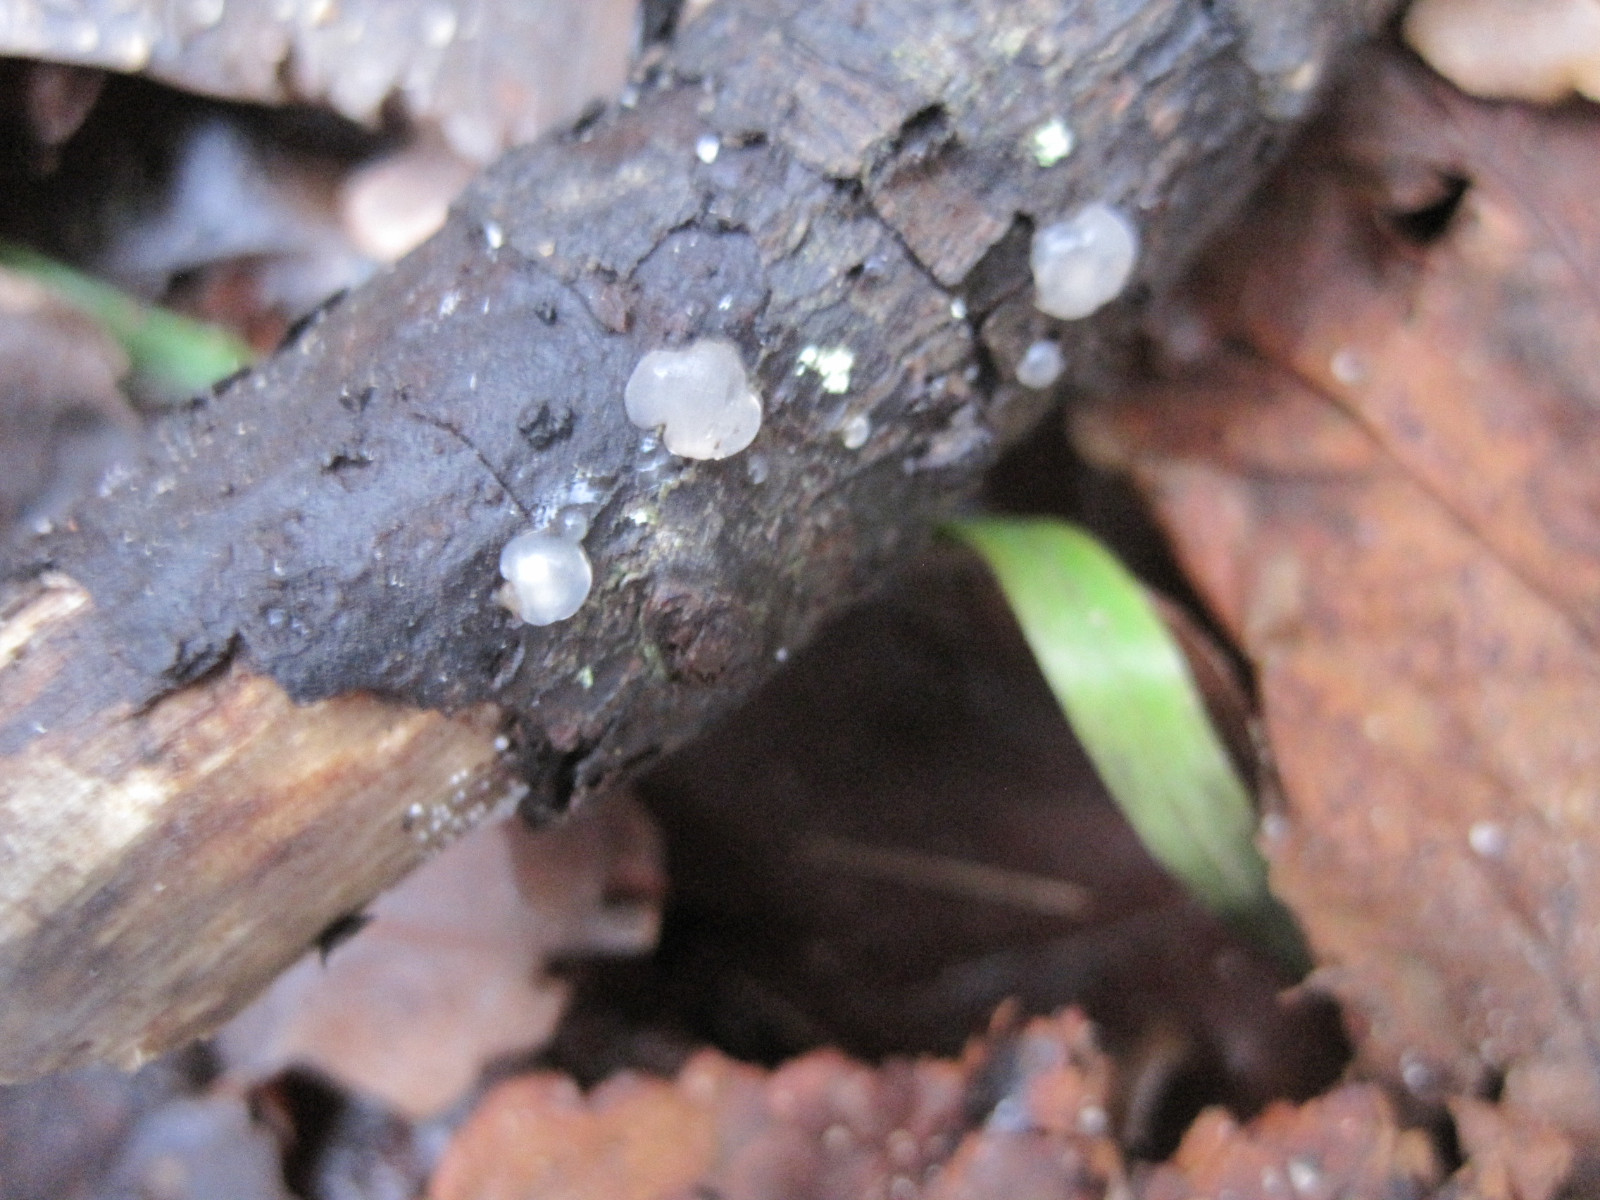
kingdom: Fungi
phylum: Basidiomycota
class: Agaricomycetes
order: Auriculariales
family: Hyaloriaceae
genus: Myxarium
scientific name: Myxarium nucleatum
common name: klar bævretop
